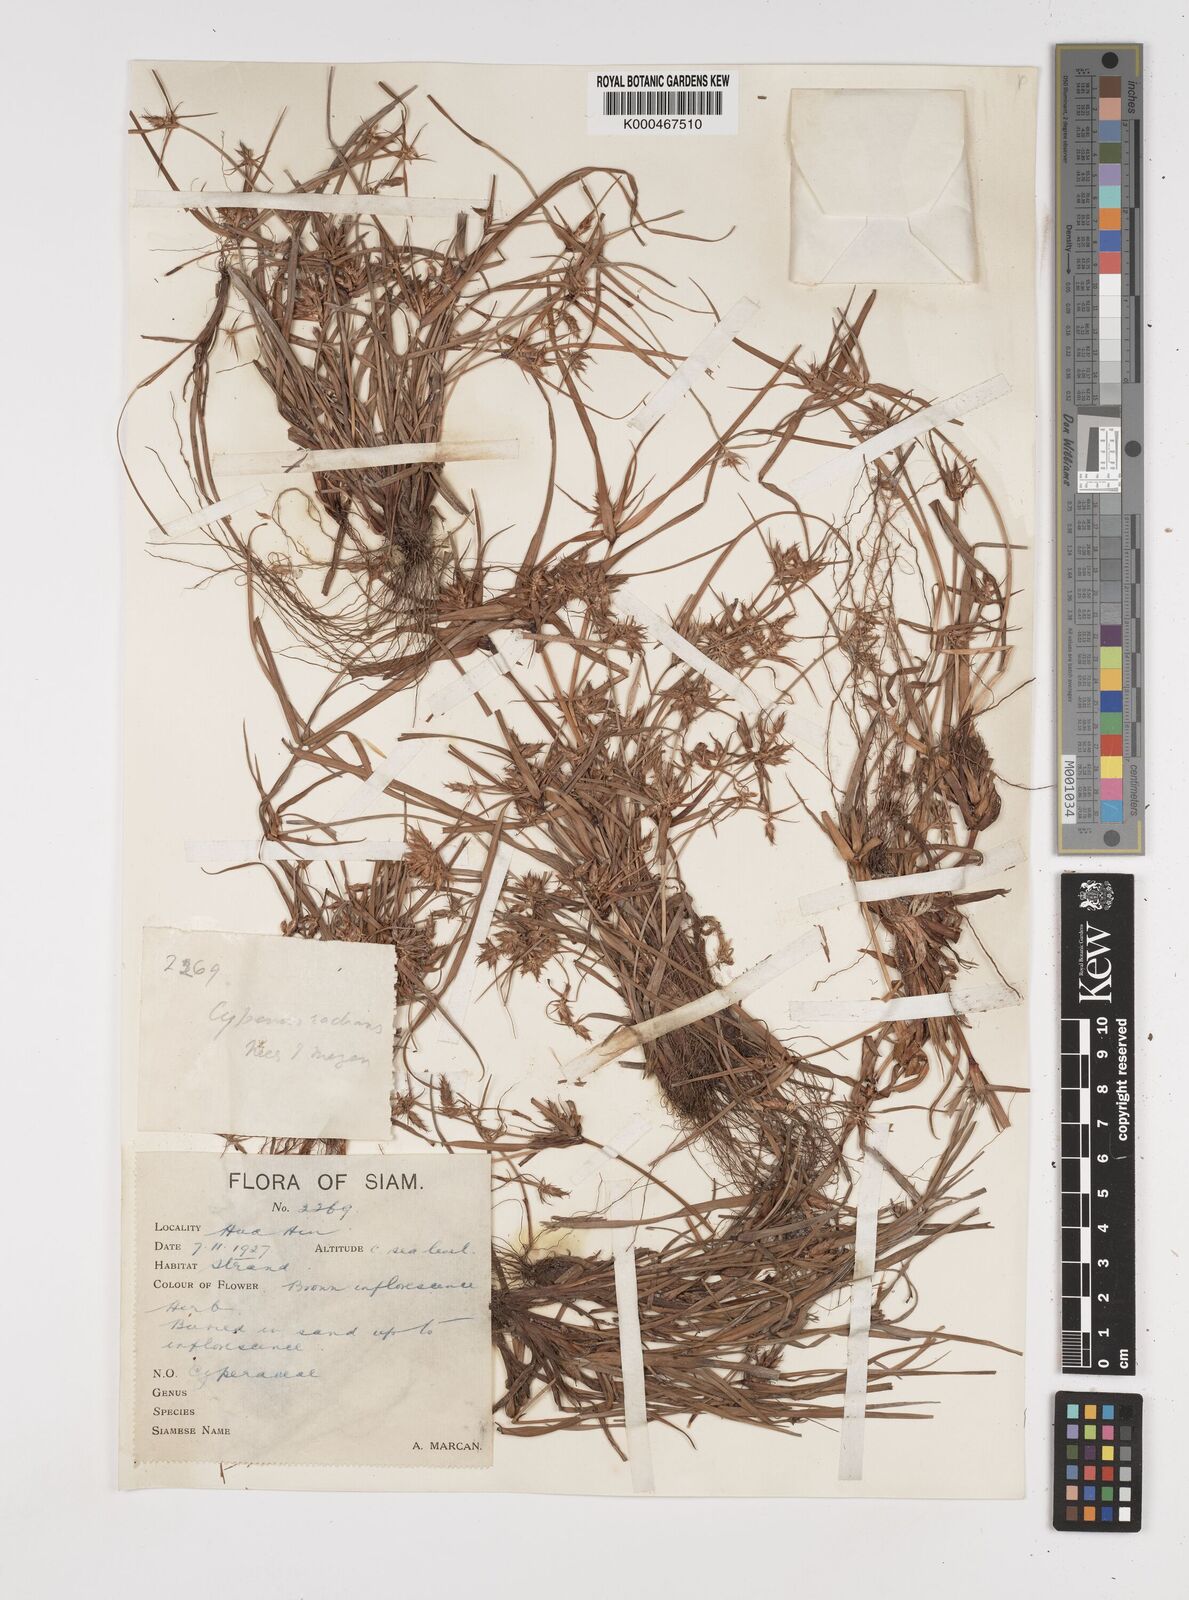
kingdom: Plantae
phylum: Tracheophyta
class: Liliopsida
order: Poales
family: Cyperaceae
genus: Cyperus
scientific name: Cyperus radians
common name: Short-stem cyperus
